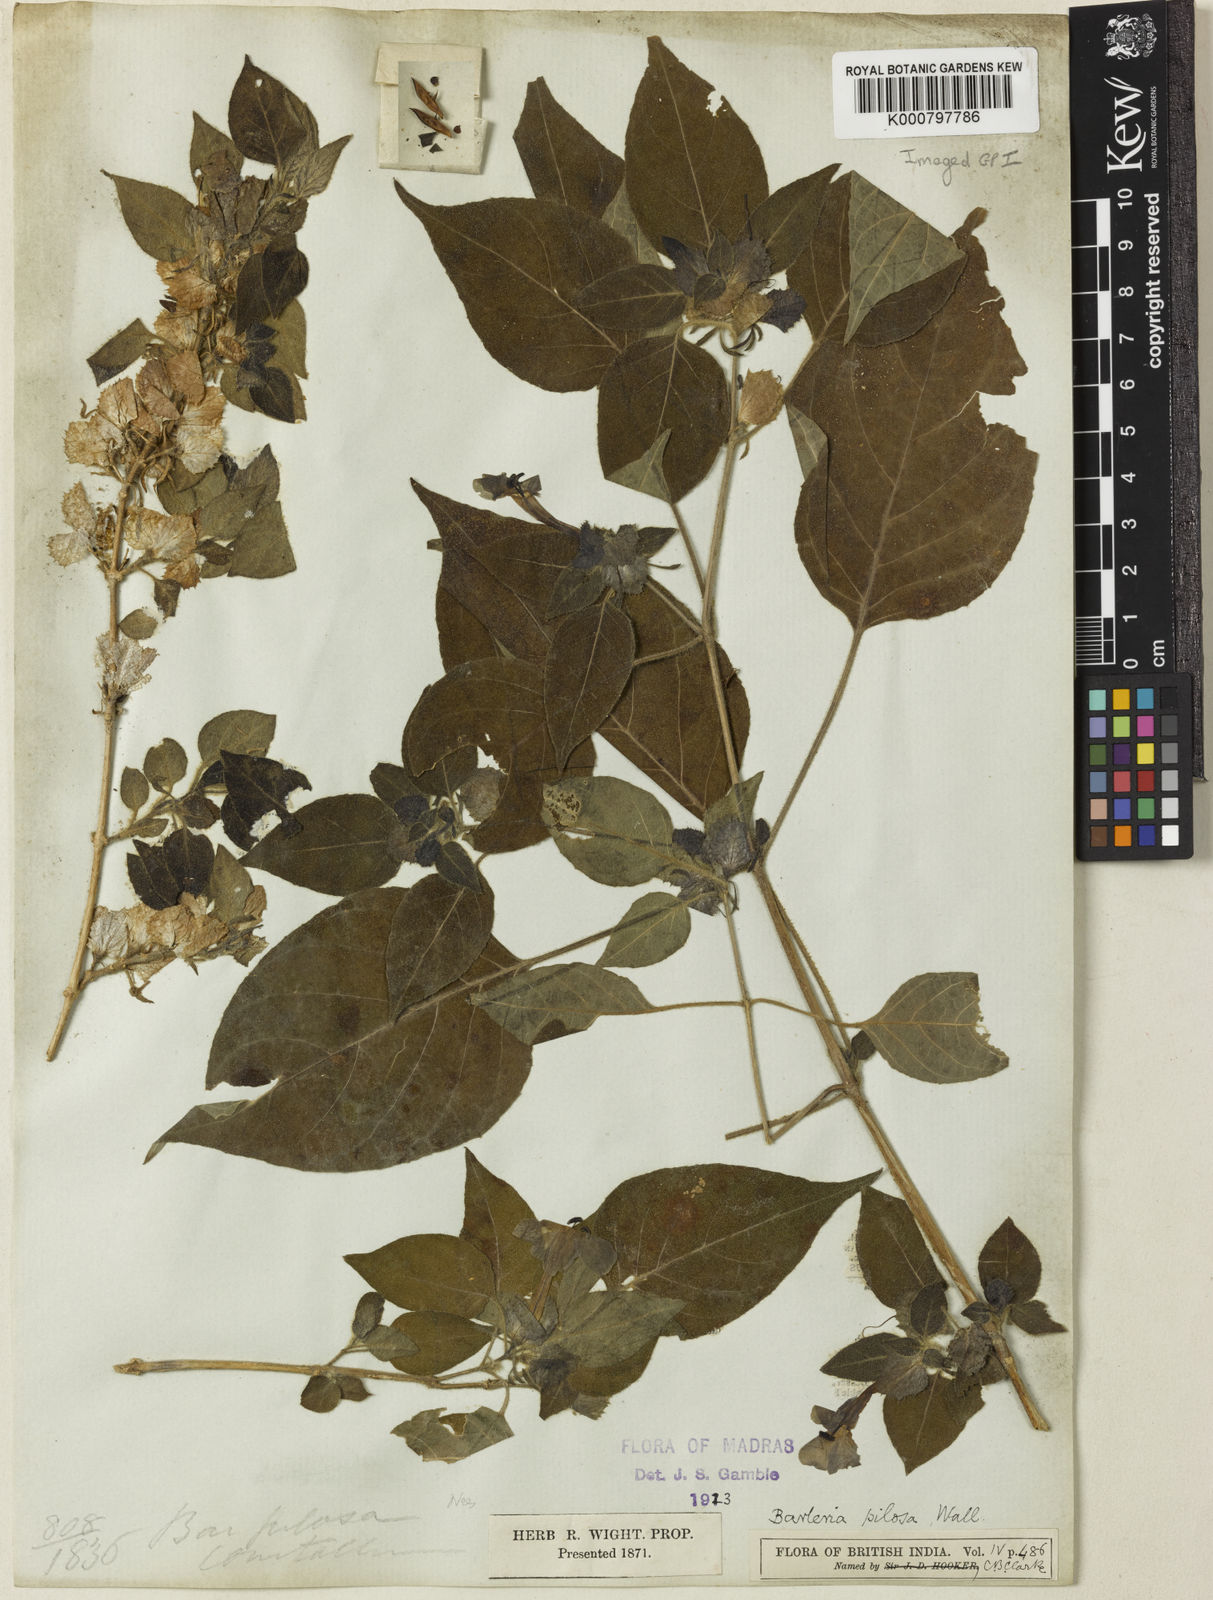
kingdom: Plantae
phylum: Tracheophyta
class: Magnoliopsida
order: Lamiales
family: Acanthaceae
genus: Barleria
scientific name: Barleria pilosa
